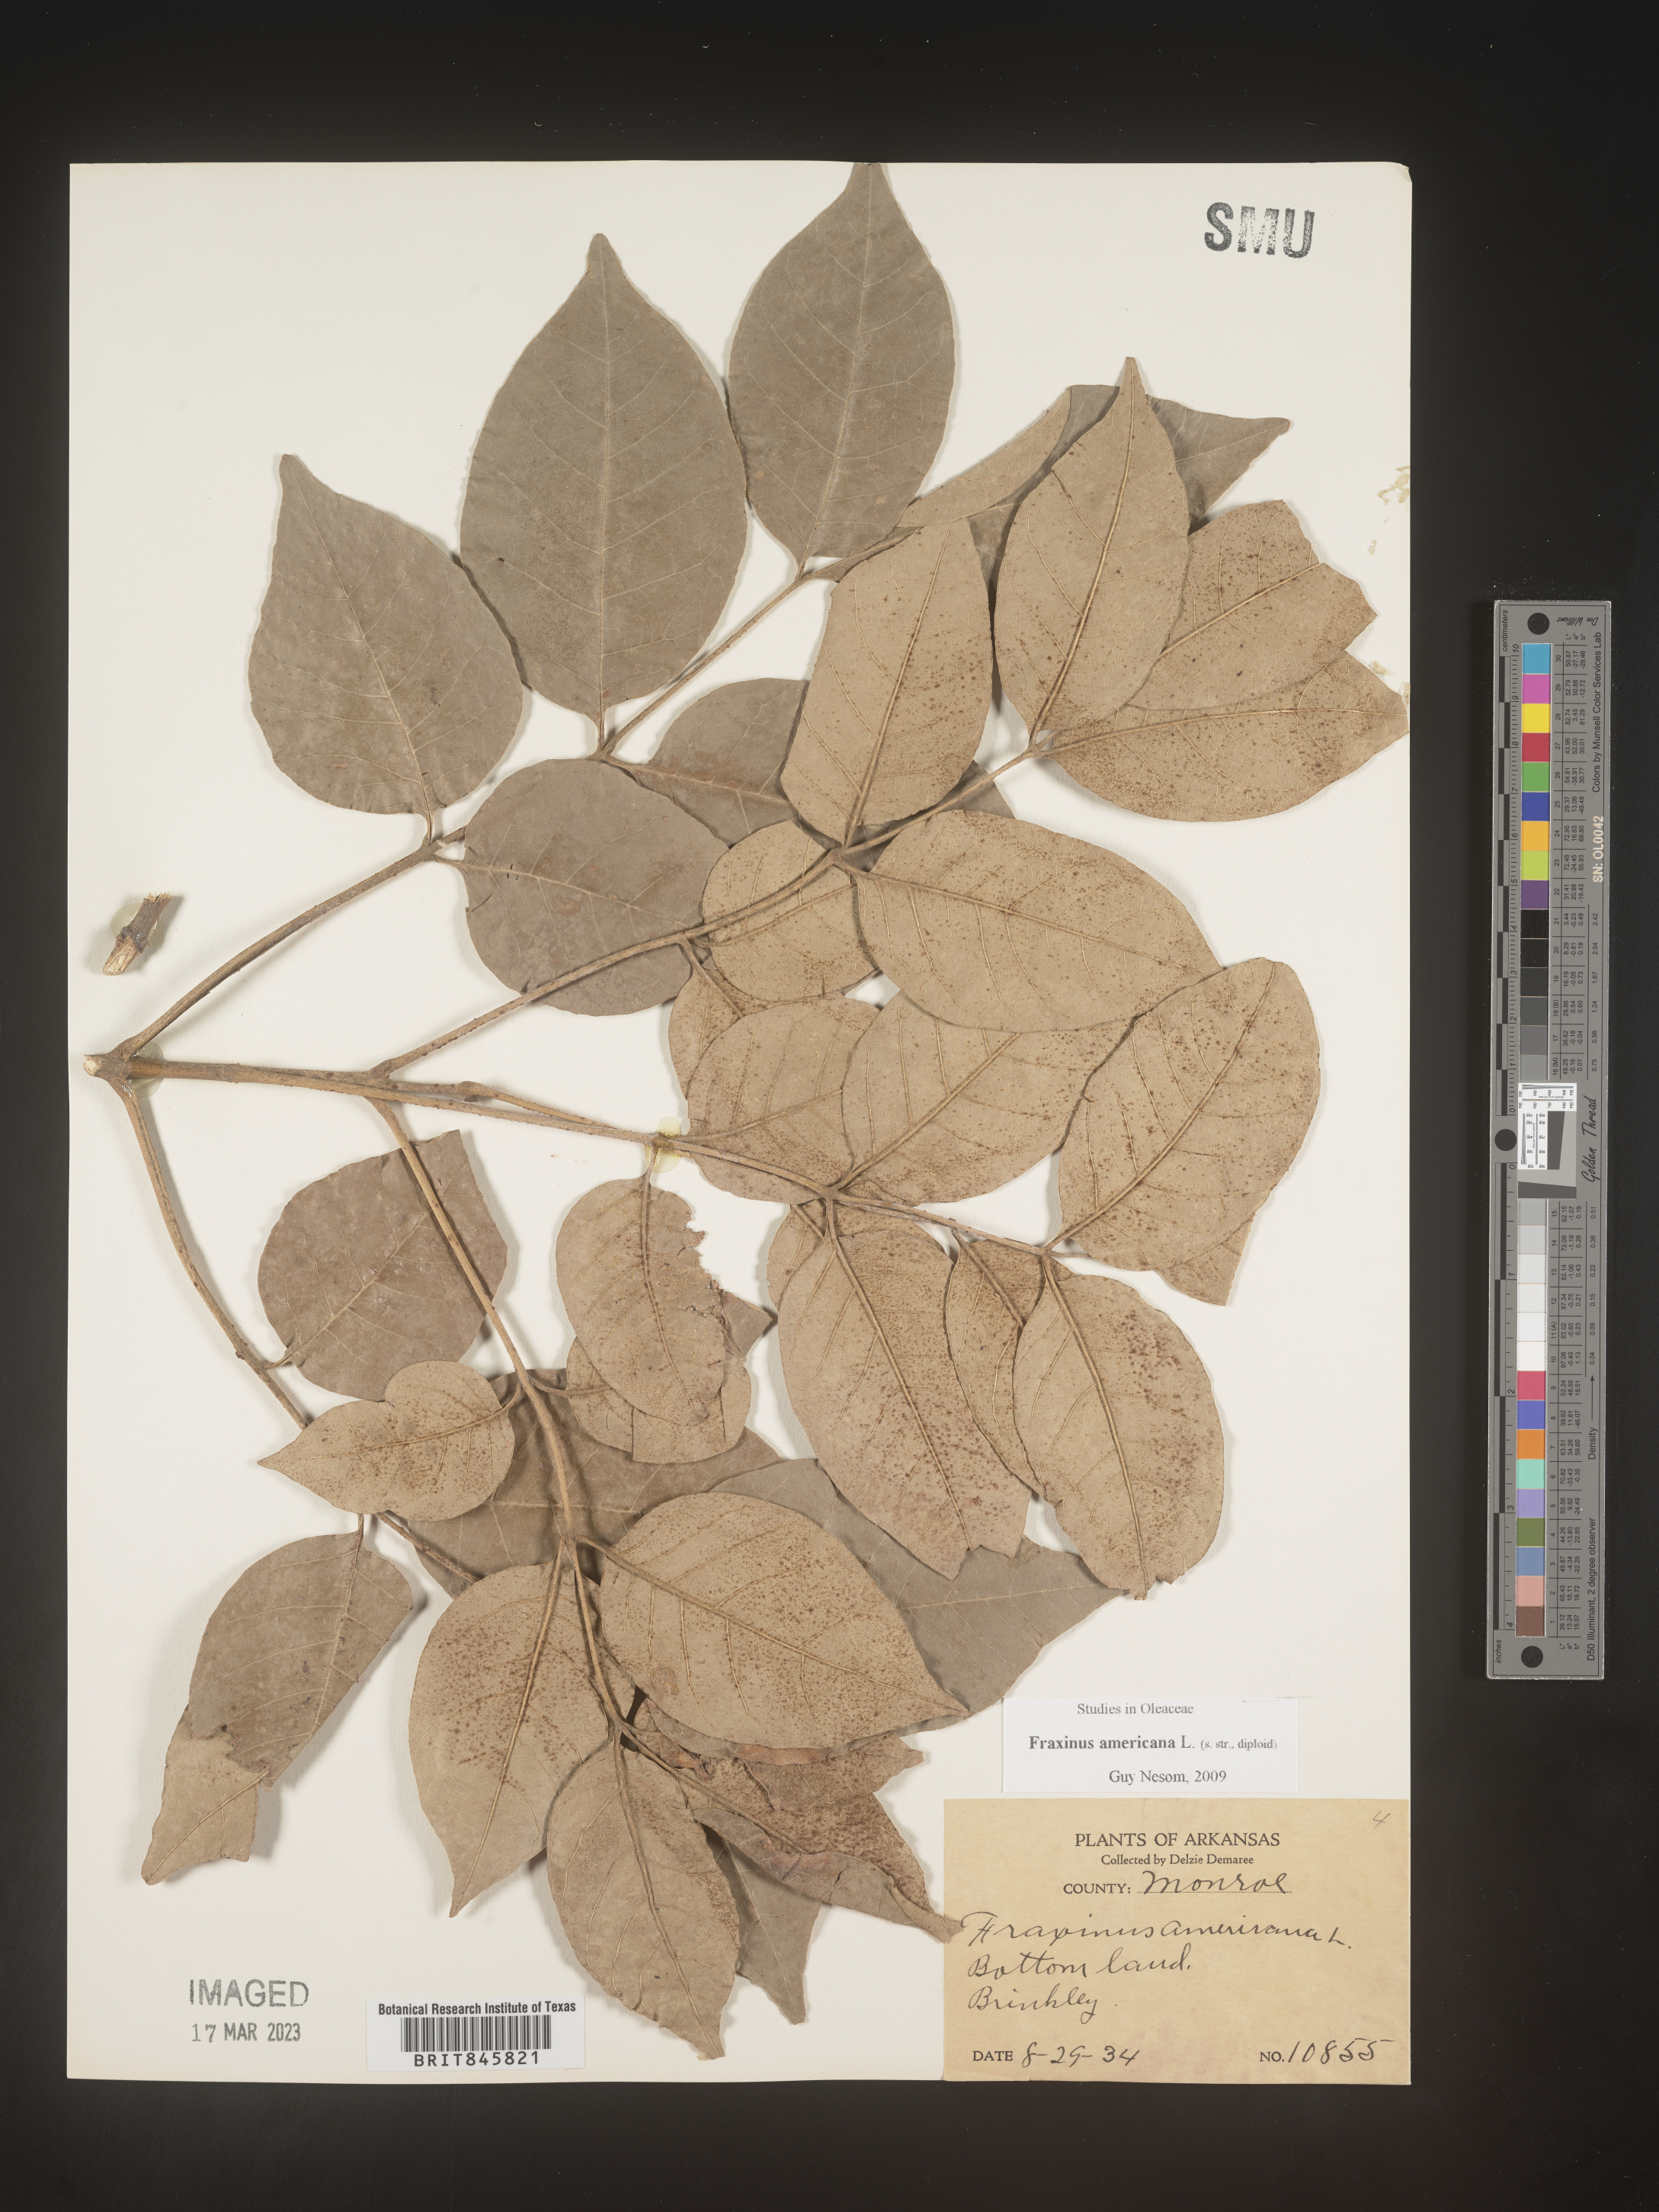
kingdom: Plantae
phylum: Tracheophyta
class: Magnoliopsida
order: Lamiales
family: Oleaceae
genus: Fraxinus
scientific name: Fraxinus americana
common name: White ash
